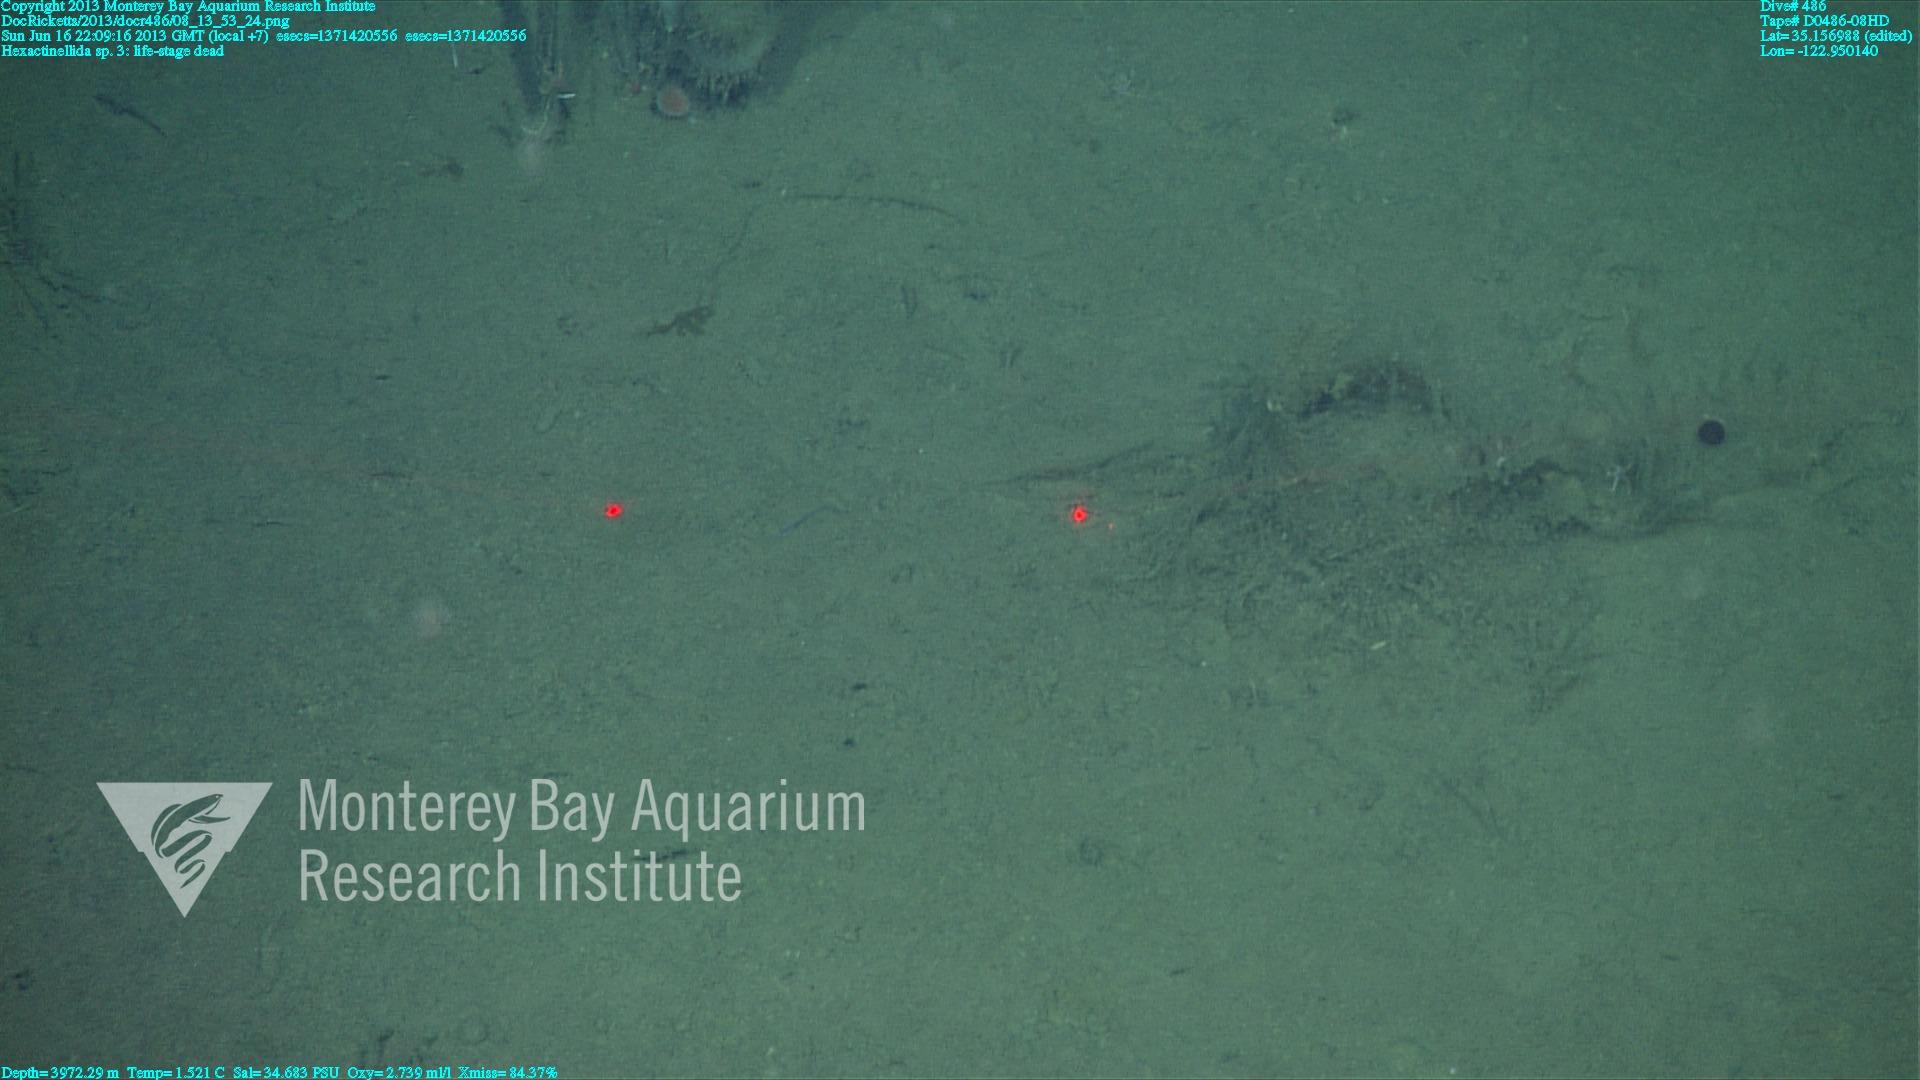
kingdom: Animalia
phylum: Porifera
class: Hexactinellida
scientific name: Hexactinellida
